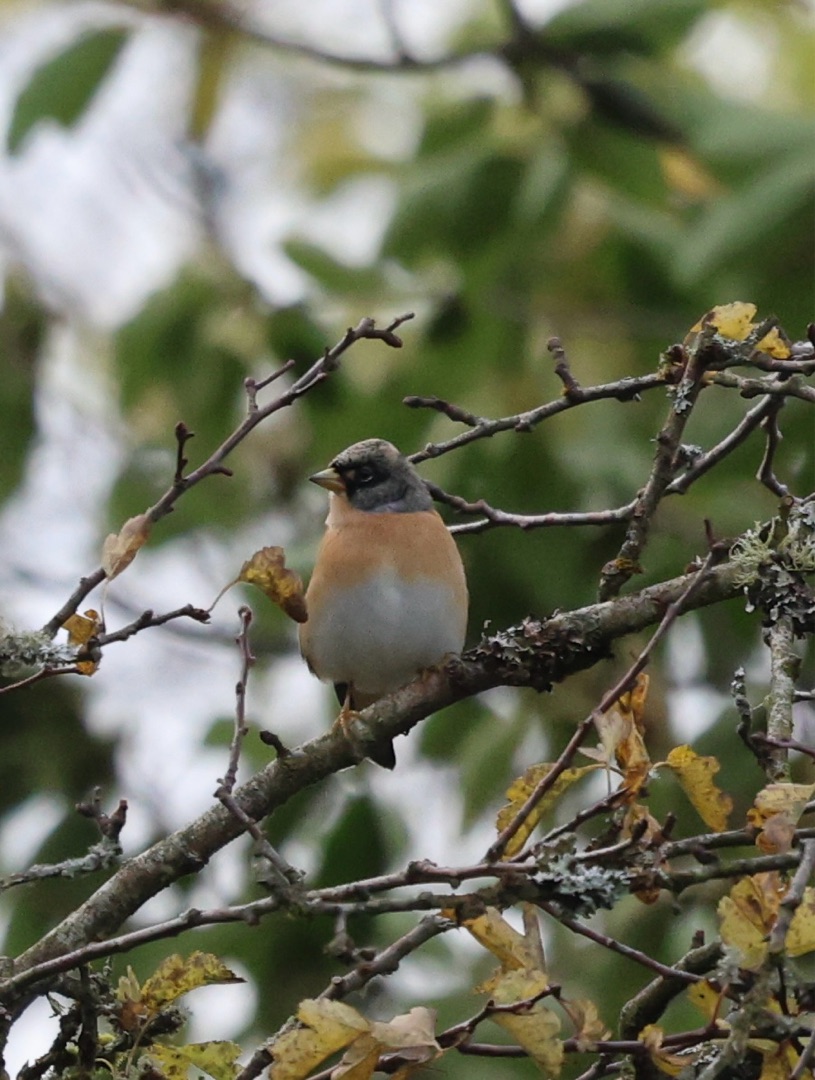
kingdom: Animalia
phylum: Chordata
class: Aves
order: Passeriformes
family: Fringillidae
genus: Fringilla
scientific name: Fringilla montifringilla
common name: Kvækerfinke
